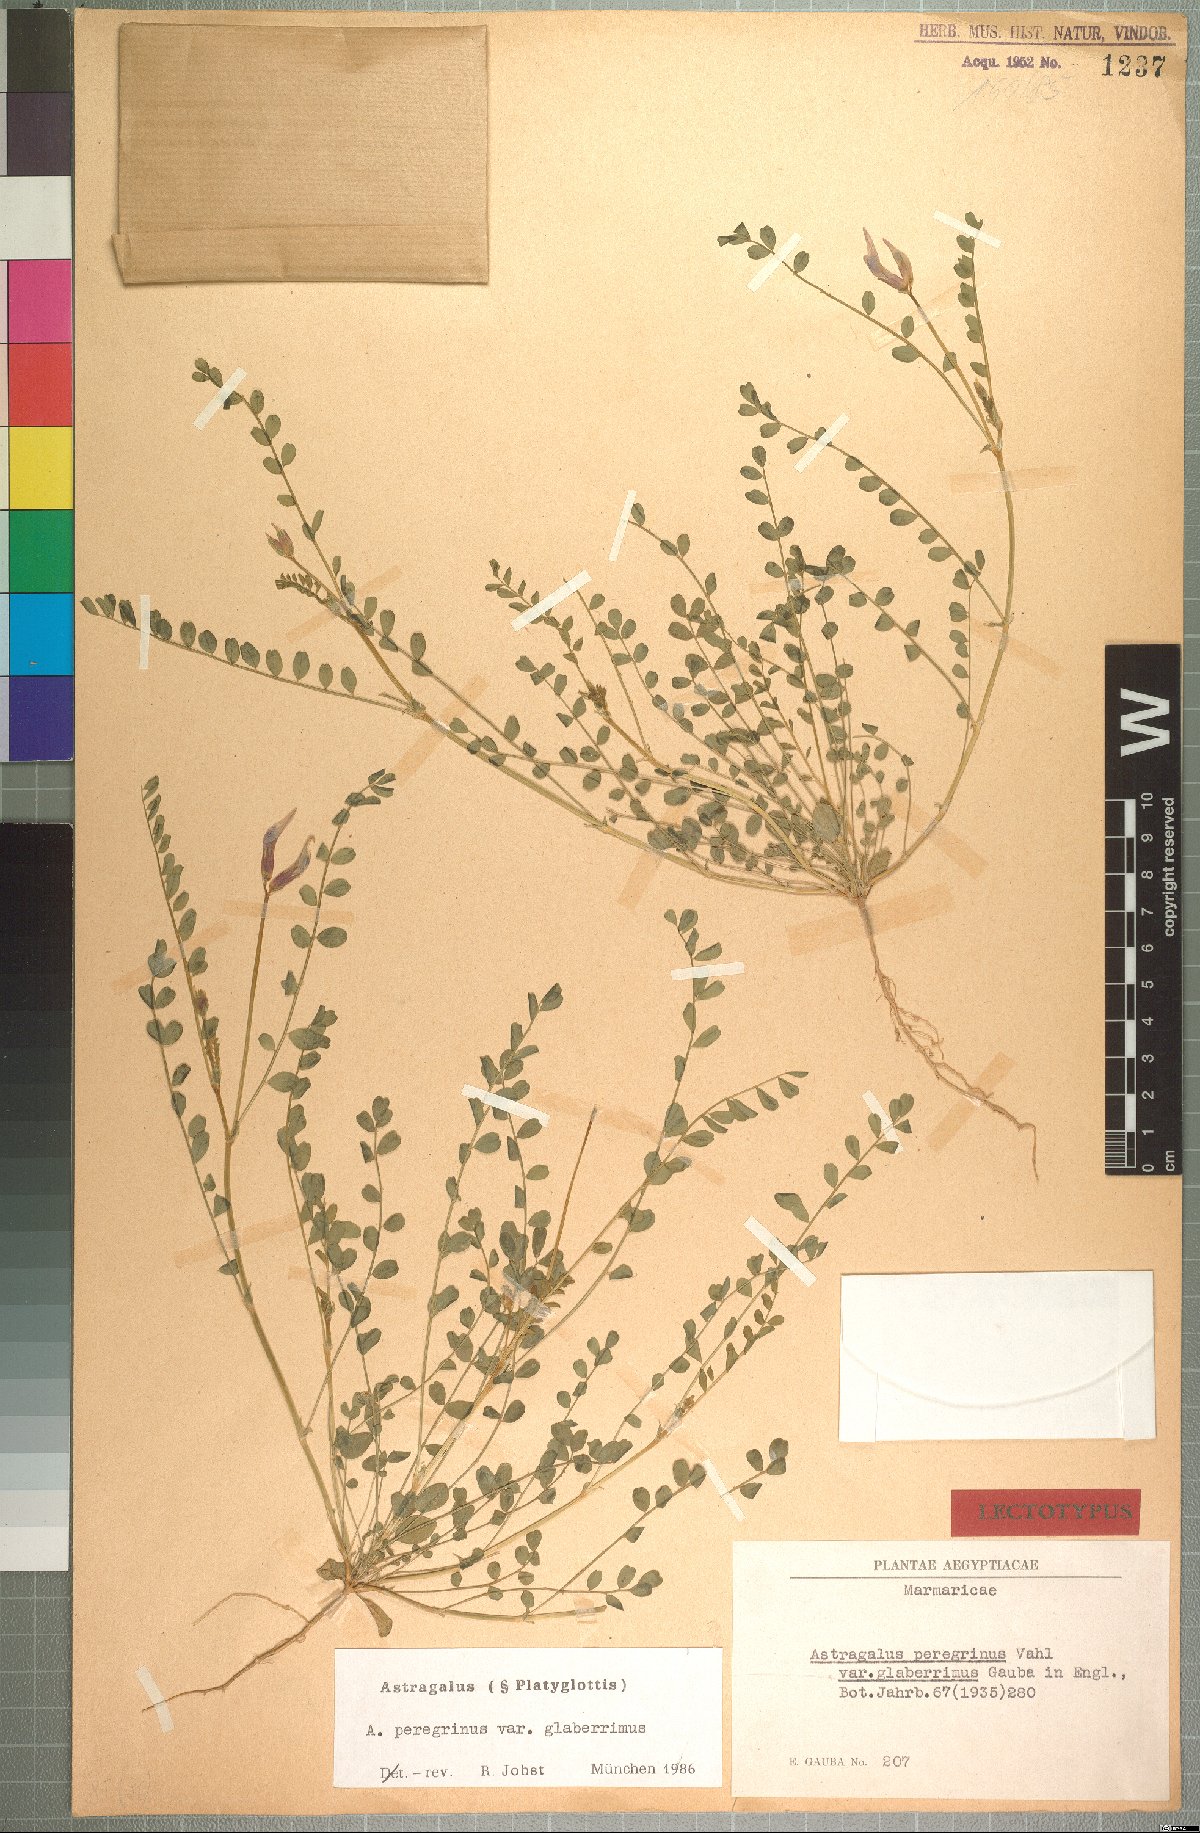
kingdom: Plantae
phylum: Tracheophyta
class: Magnoliopsida
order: Fabales
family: Fabaceae
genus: Astragalus
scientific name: Astragalus peregrinus
